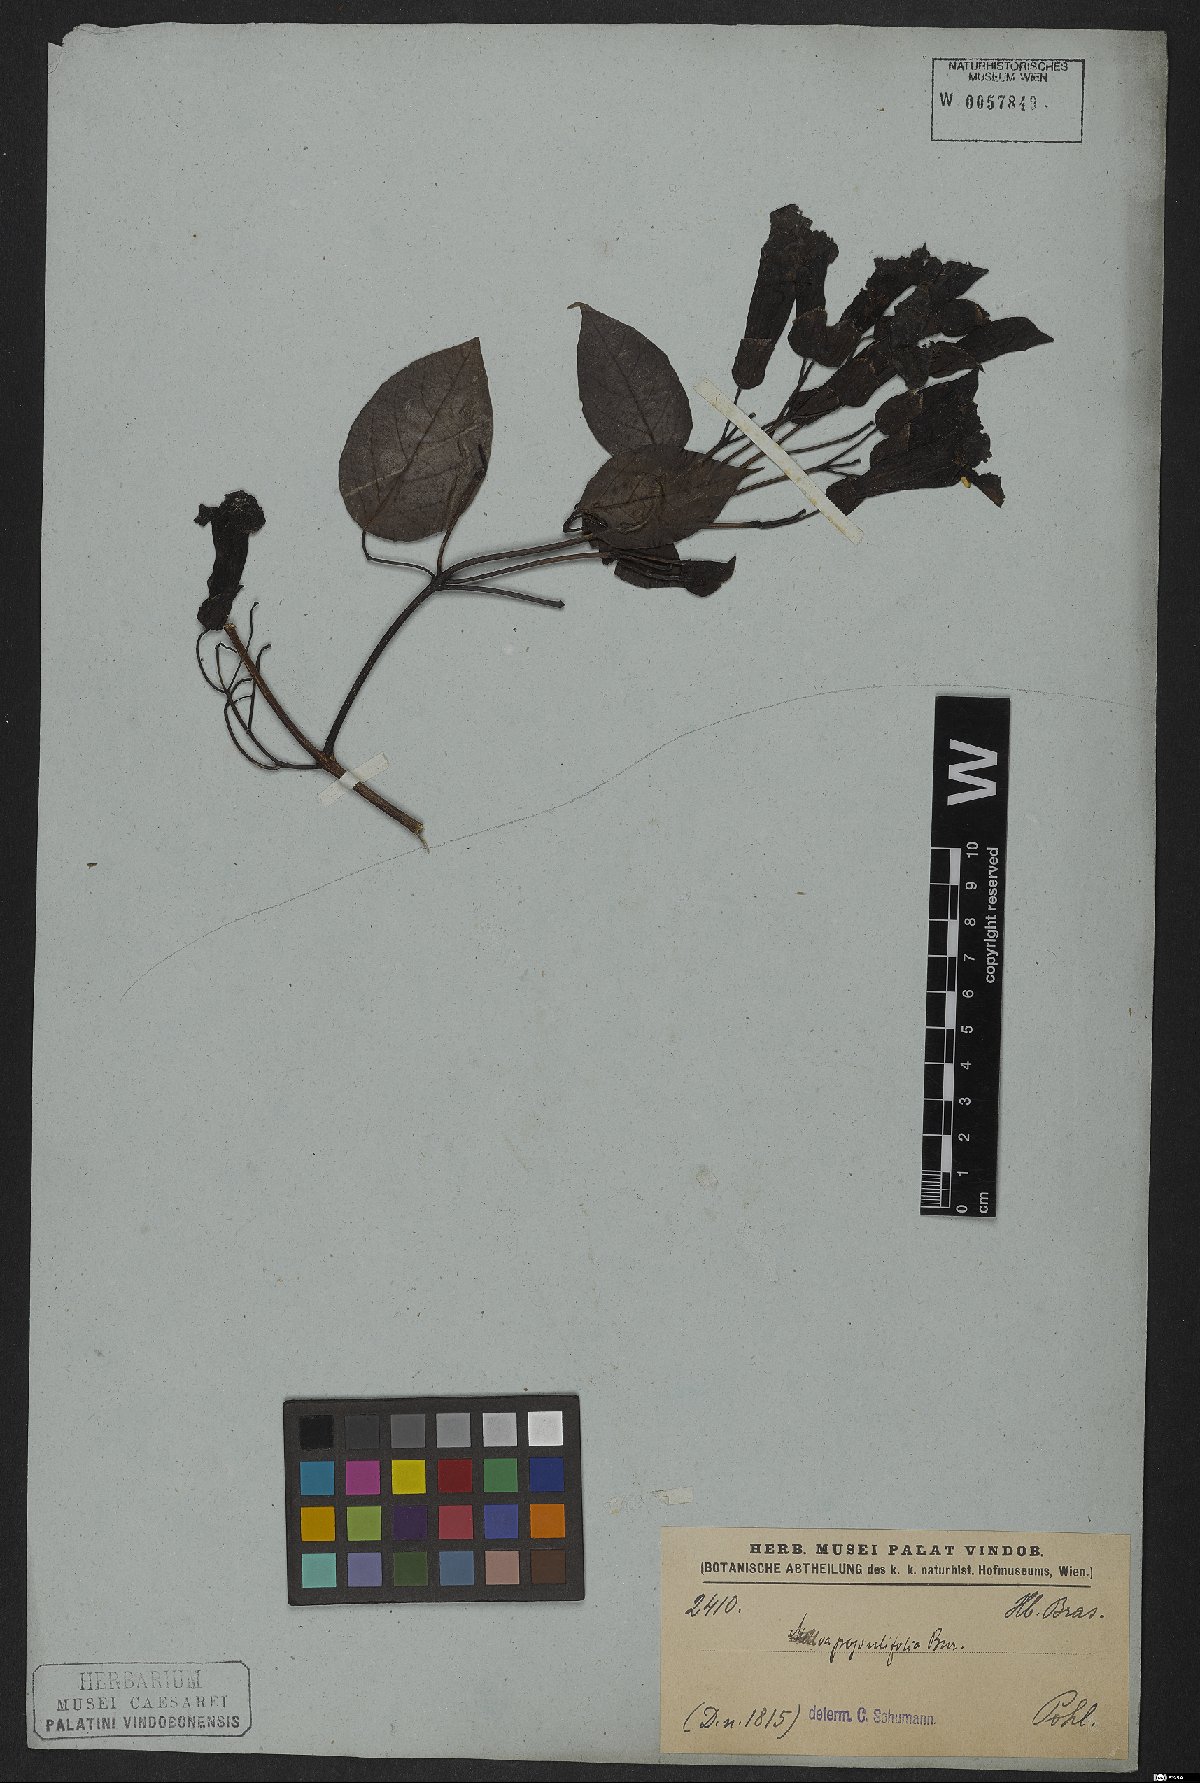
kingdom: Plantae
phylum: Tracheophyta
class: Magnoliopsida
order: Lamiales
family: Bignoniaceae
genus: Dolichandra
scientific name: Dolichandra quadrivalvis
